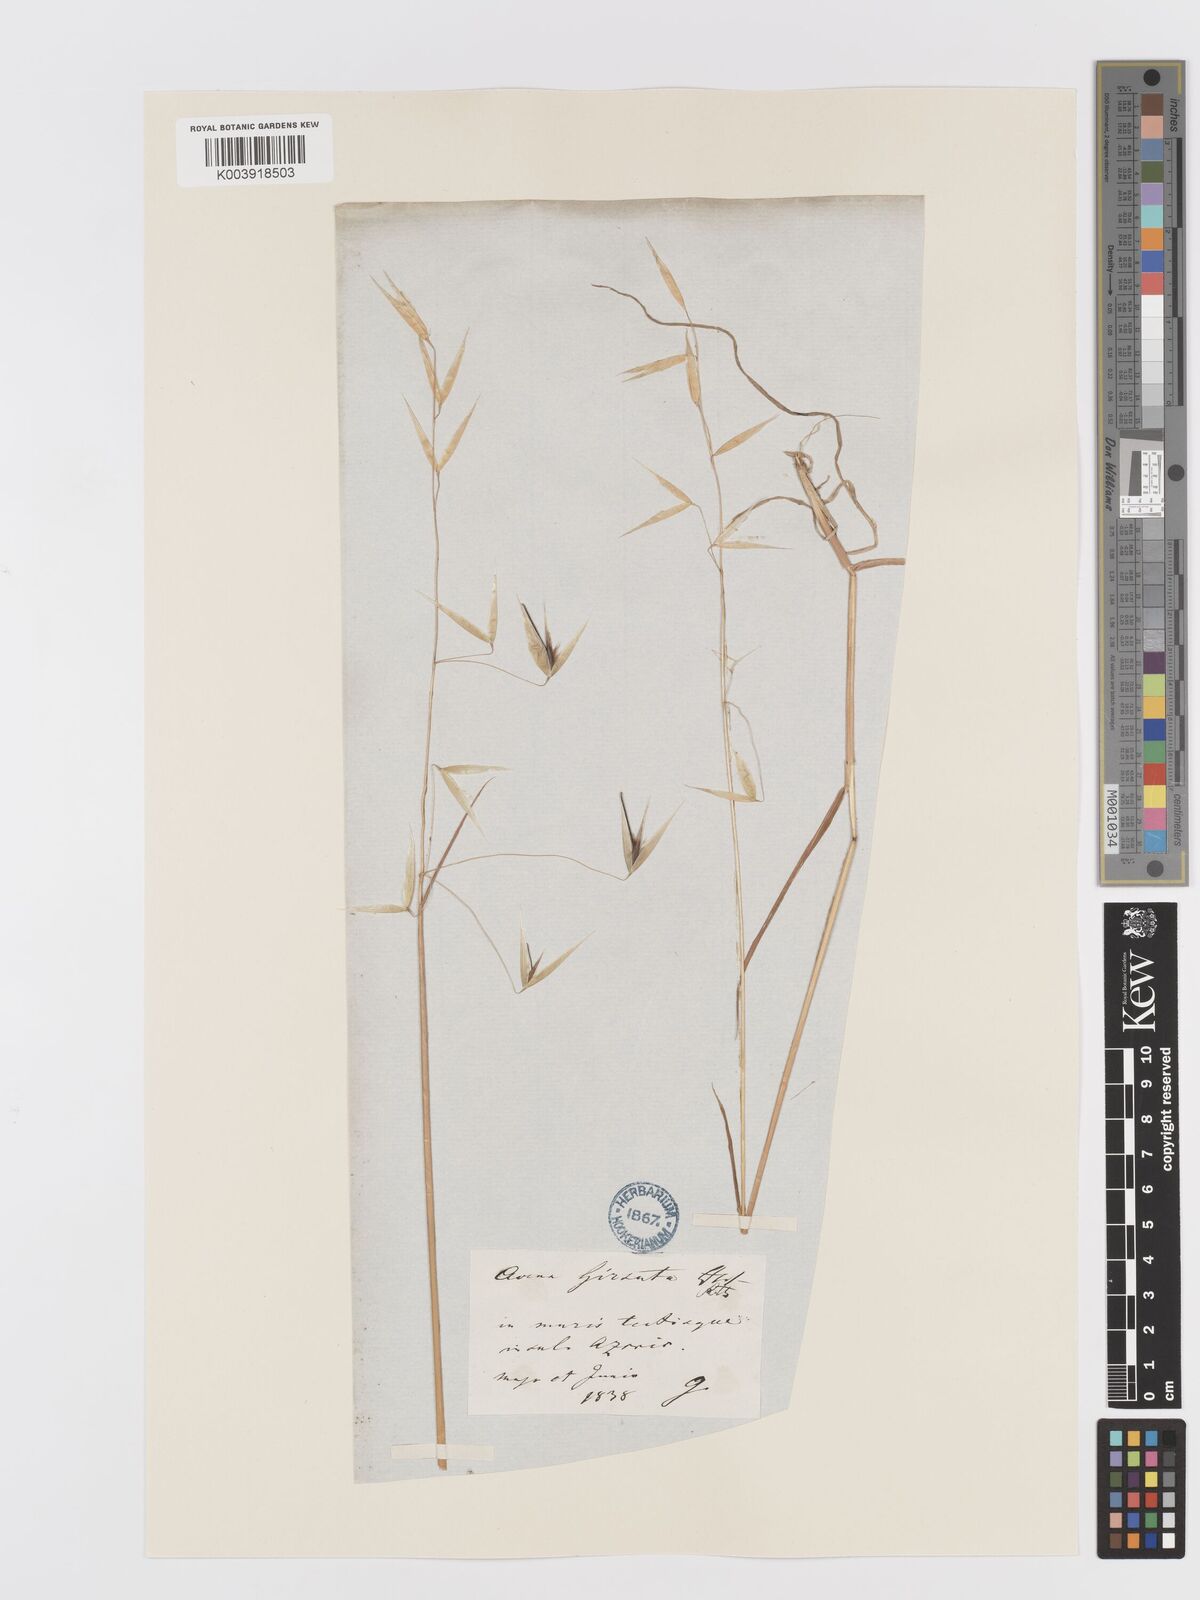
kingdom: Plantae
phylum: Tracheophyta
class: Liliopsida
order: Poales
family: Poaceae
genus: Avena
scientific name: Avena
